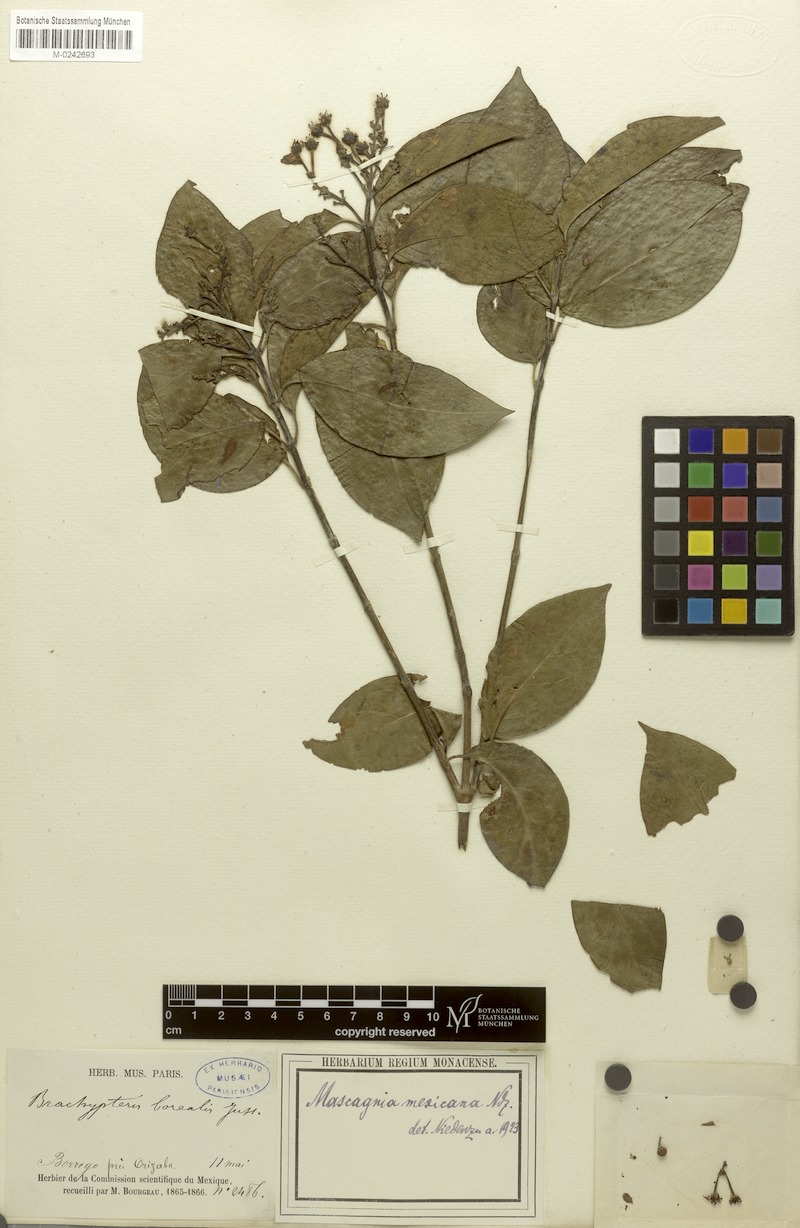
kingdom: Plantae
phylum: Tracheophyta
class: Magnoliopsida
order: Malpighiales
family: Malpighiaceae
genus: Callaeum
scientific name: Callaeum malpighioides
